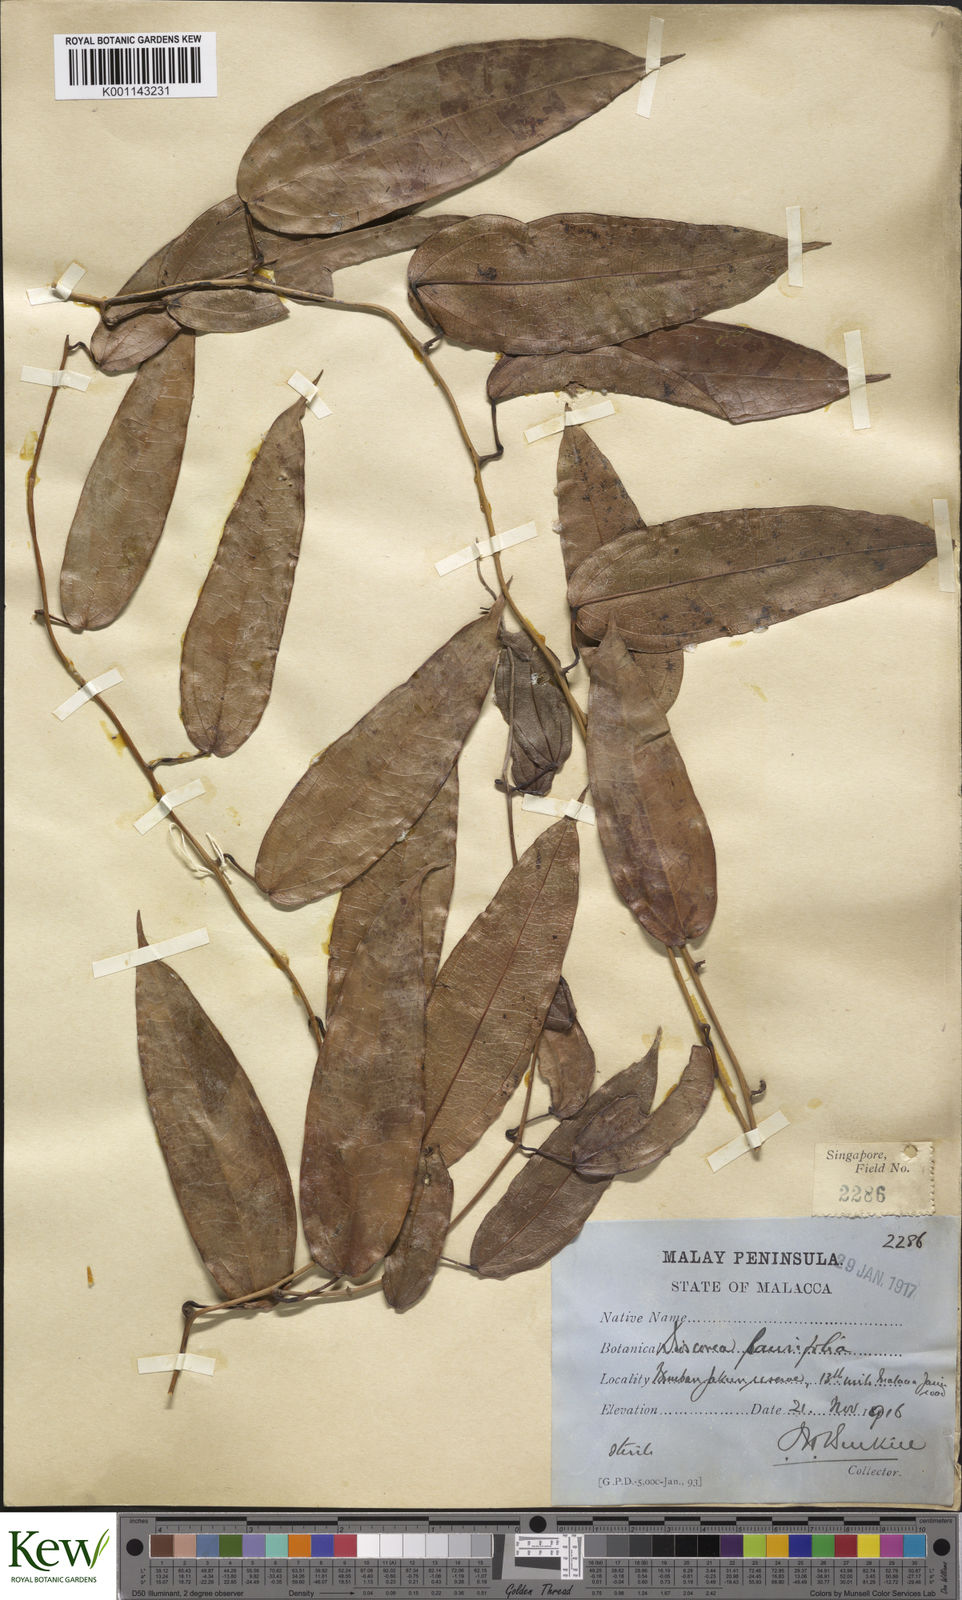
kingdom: Plantae
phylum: Tracheophyta
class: Liliopsida
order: Dioscoreales
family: Dioscoreaceae
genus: Dioscorea
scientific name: Dioscorea laurifolia
